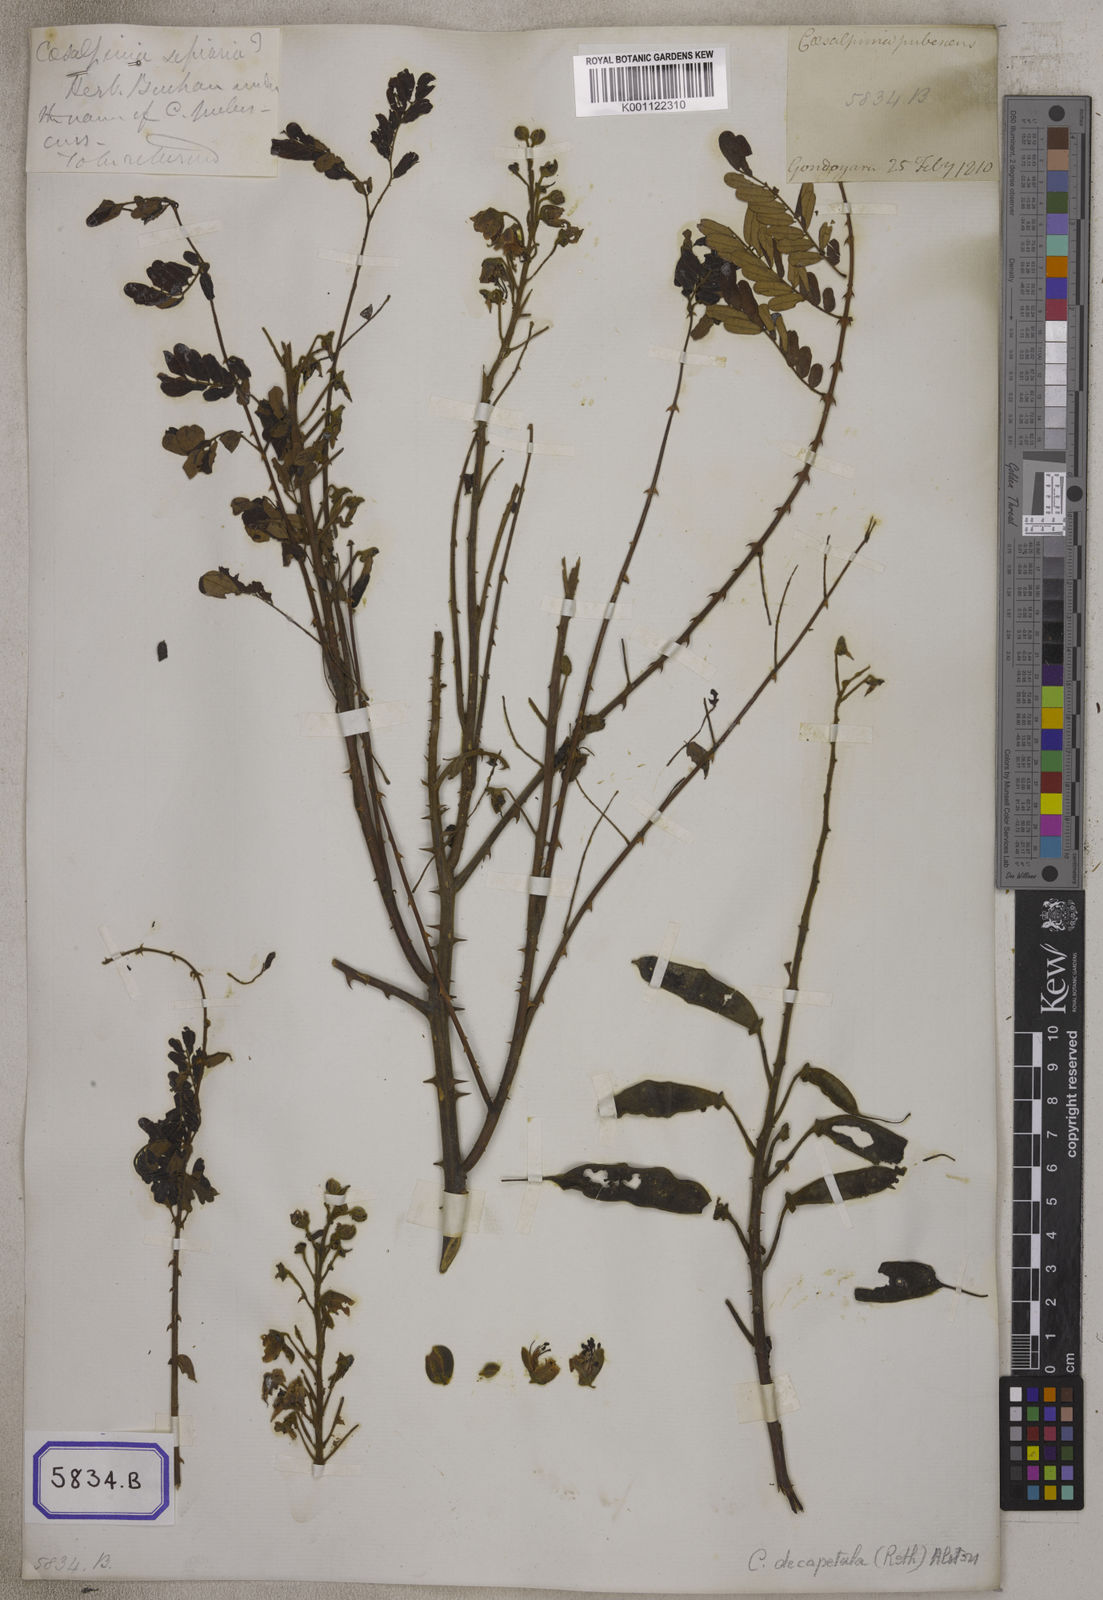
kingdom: Plantae
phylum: Tracheophyta
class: Magnoliopsida
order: Fabales
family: Fabaceae
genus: Caesalpinia
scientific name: Caesalpinia
